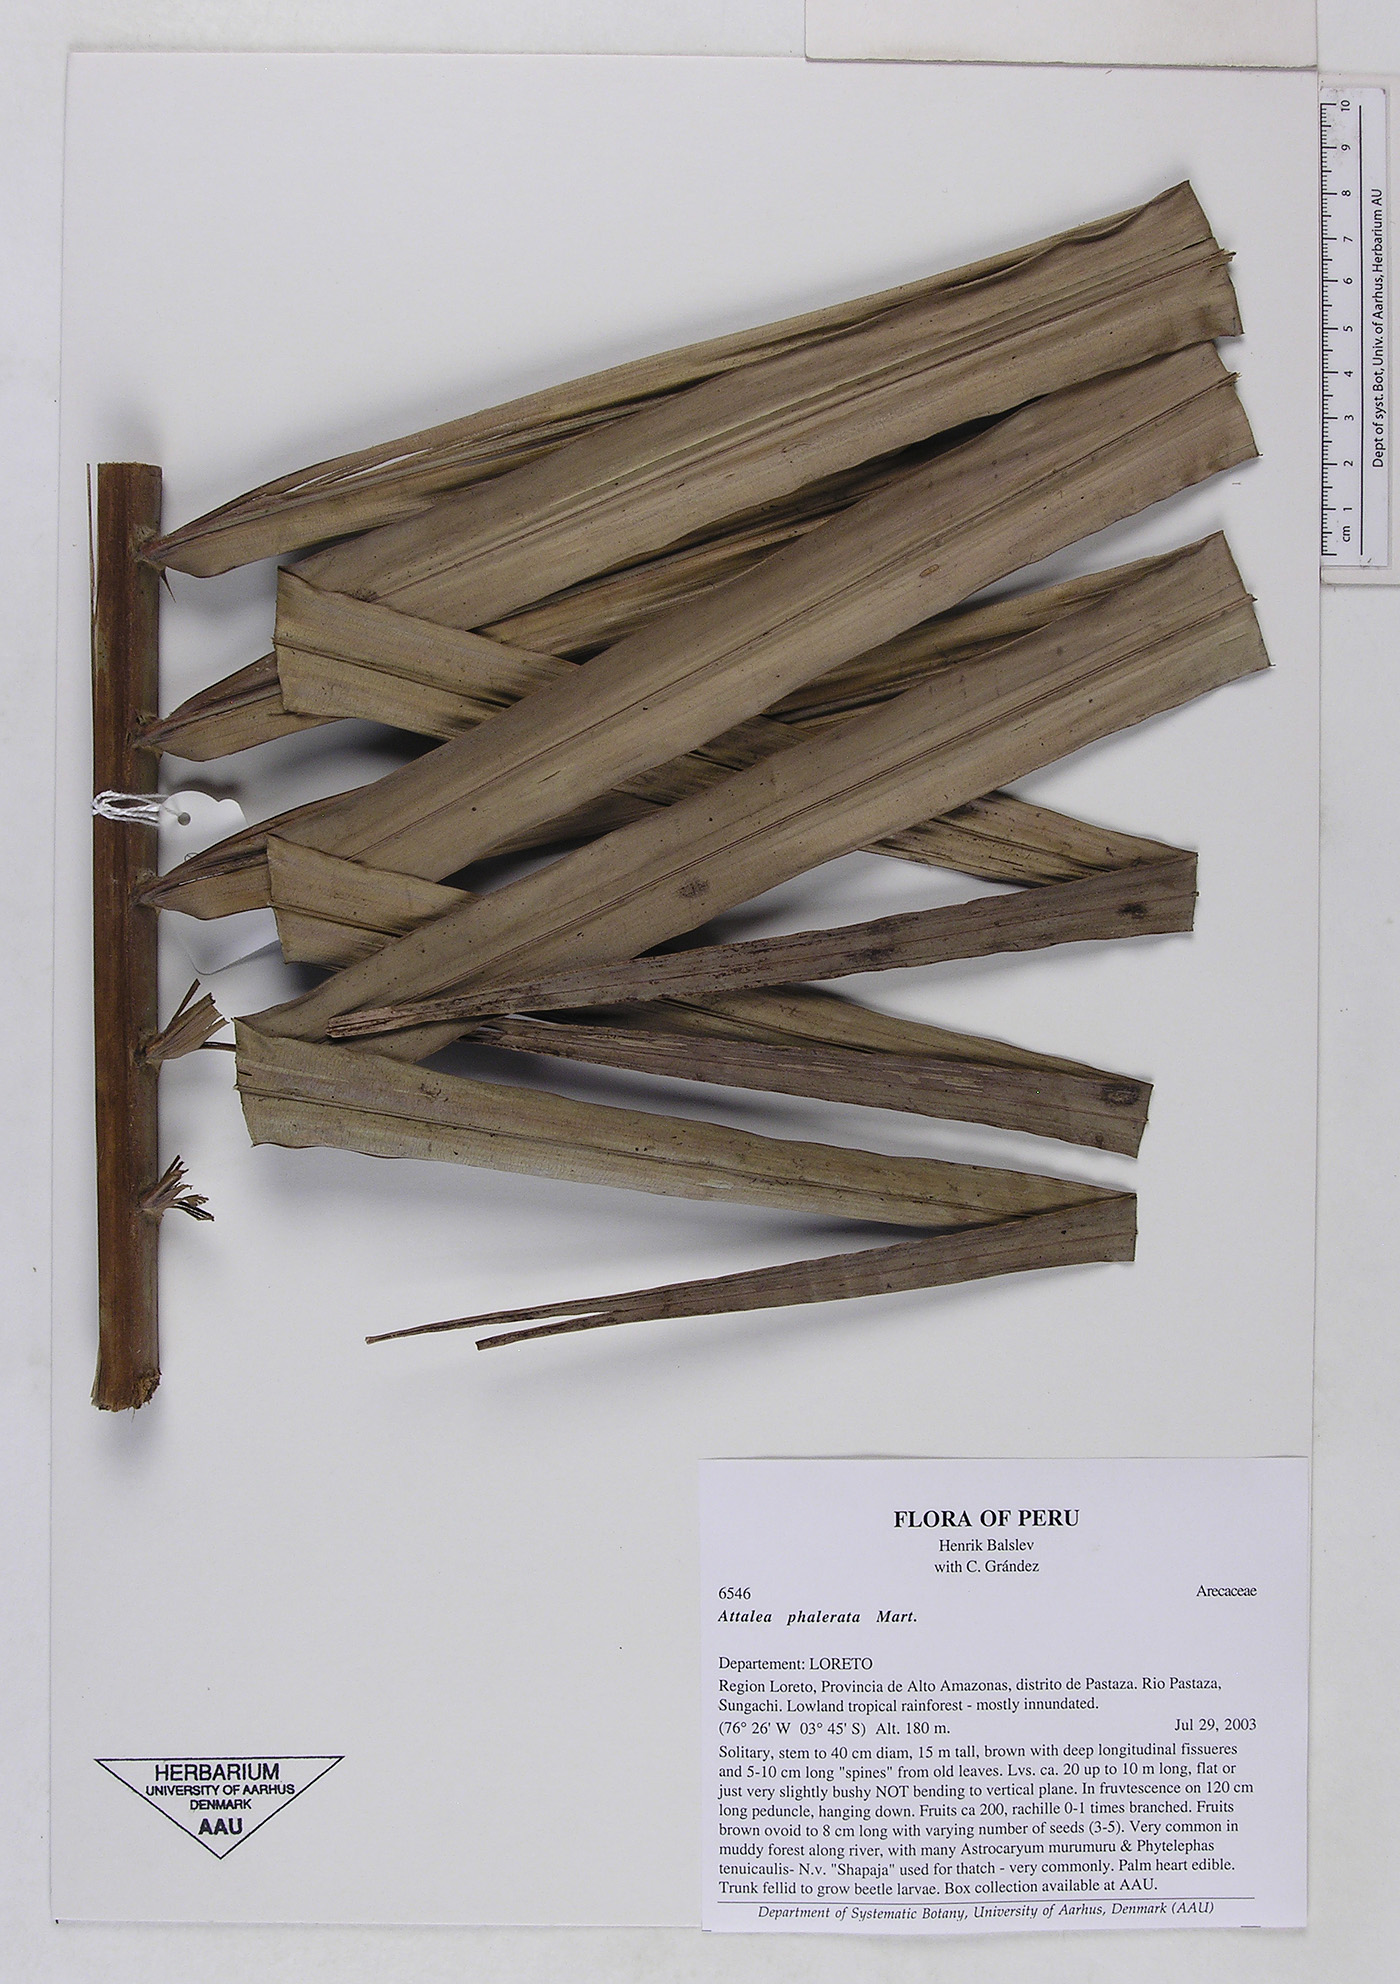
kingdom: Plantae
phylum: Tracheophyta
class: Liliopsida
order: Arecales
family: Arecaceae
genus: Attalea
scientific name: Attalea phalerata
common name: Urucuri palm
